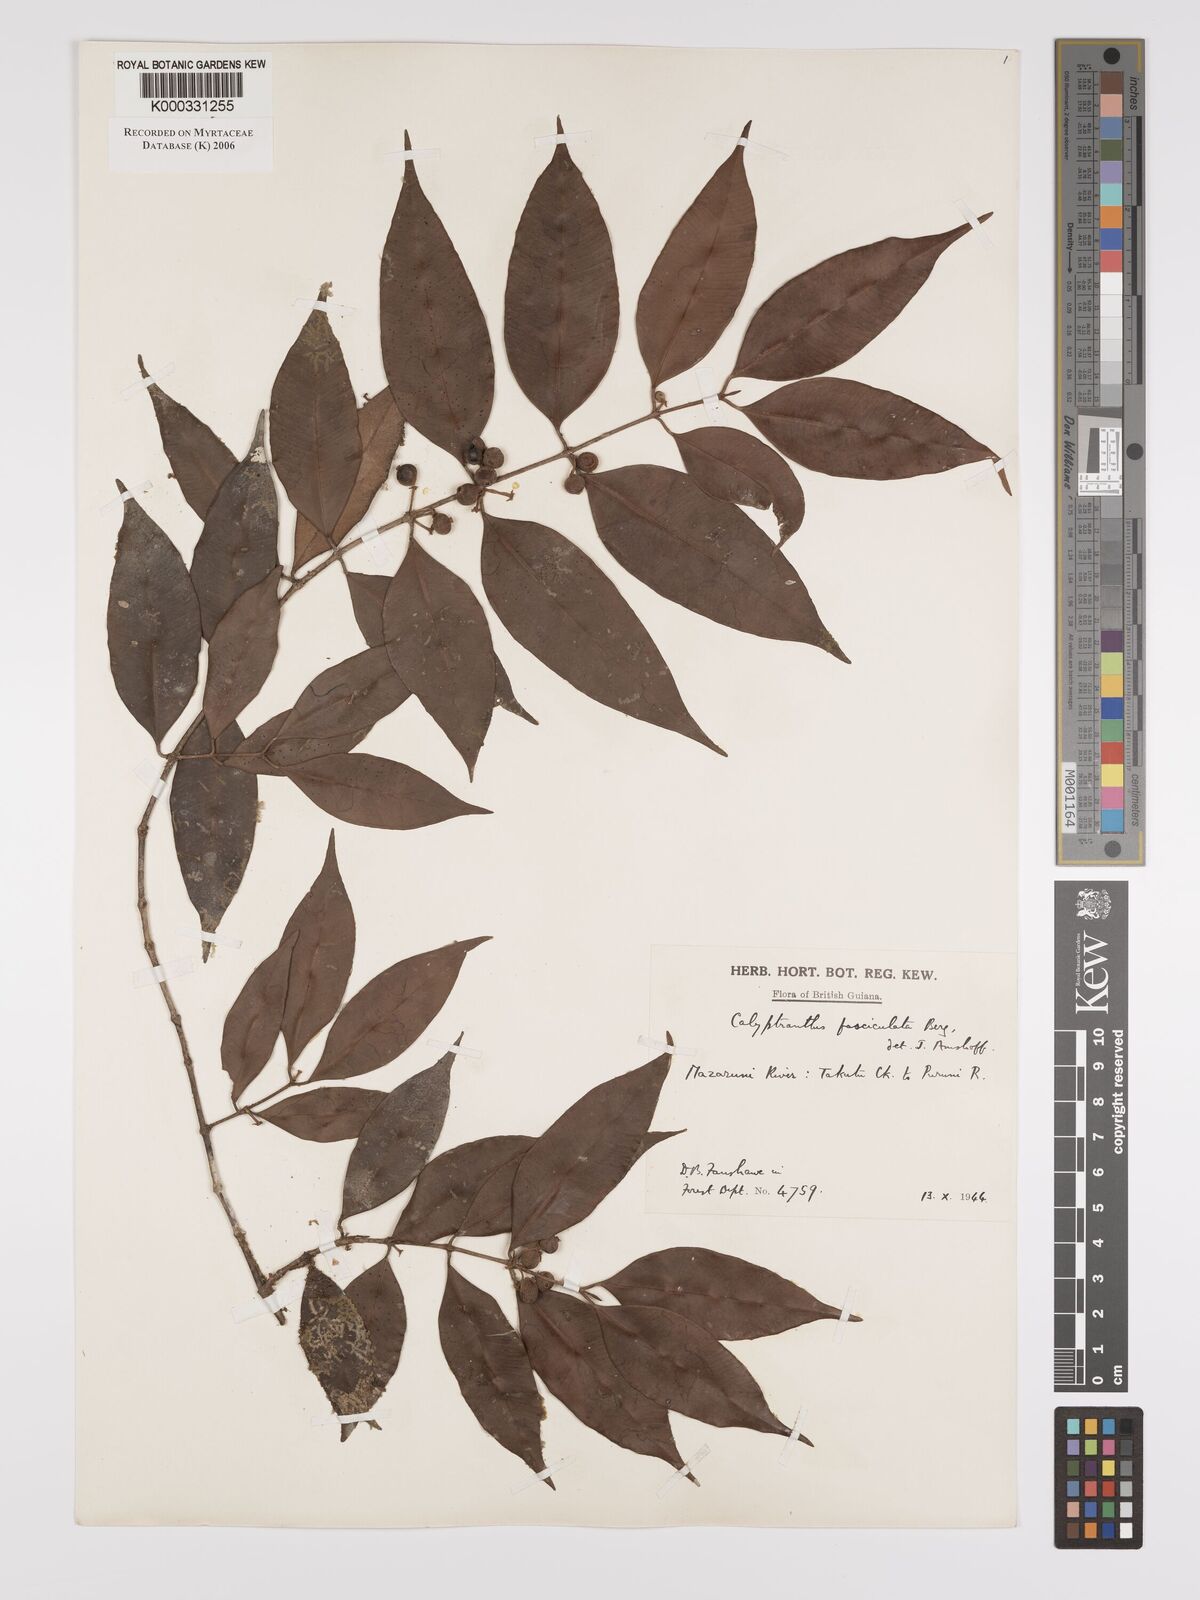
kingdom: Plantae
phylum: Tracheophyta
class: Magnoliopsida
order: Myrtales
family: Myrtaceae
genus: Myrcia
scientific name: Myrcia fasciculata
